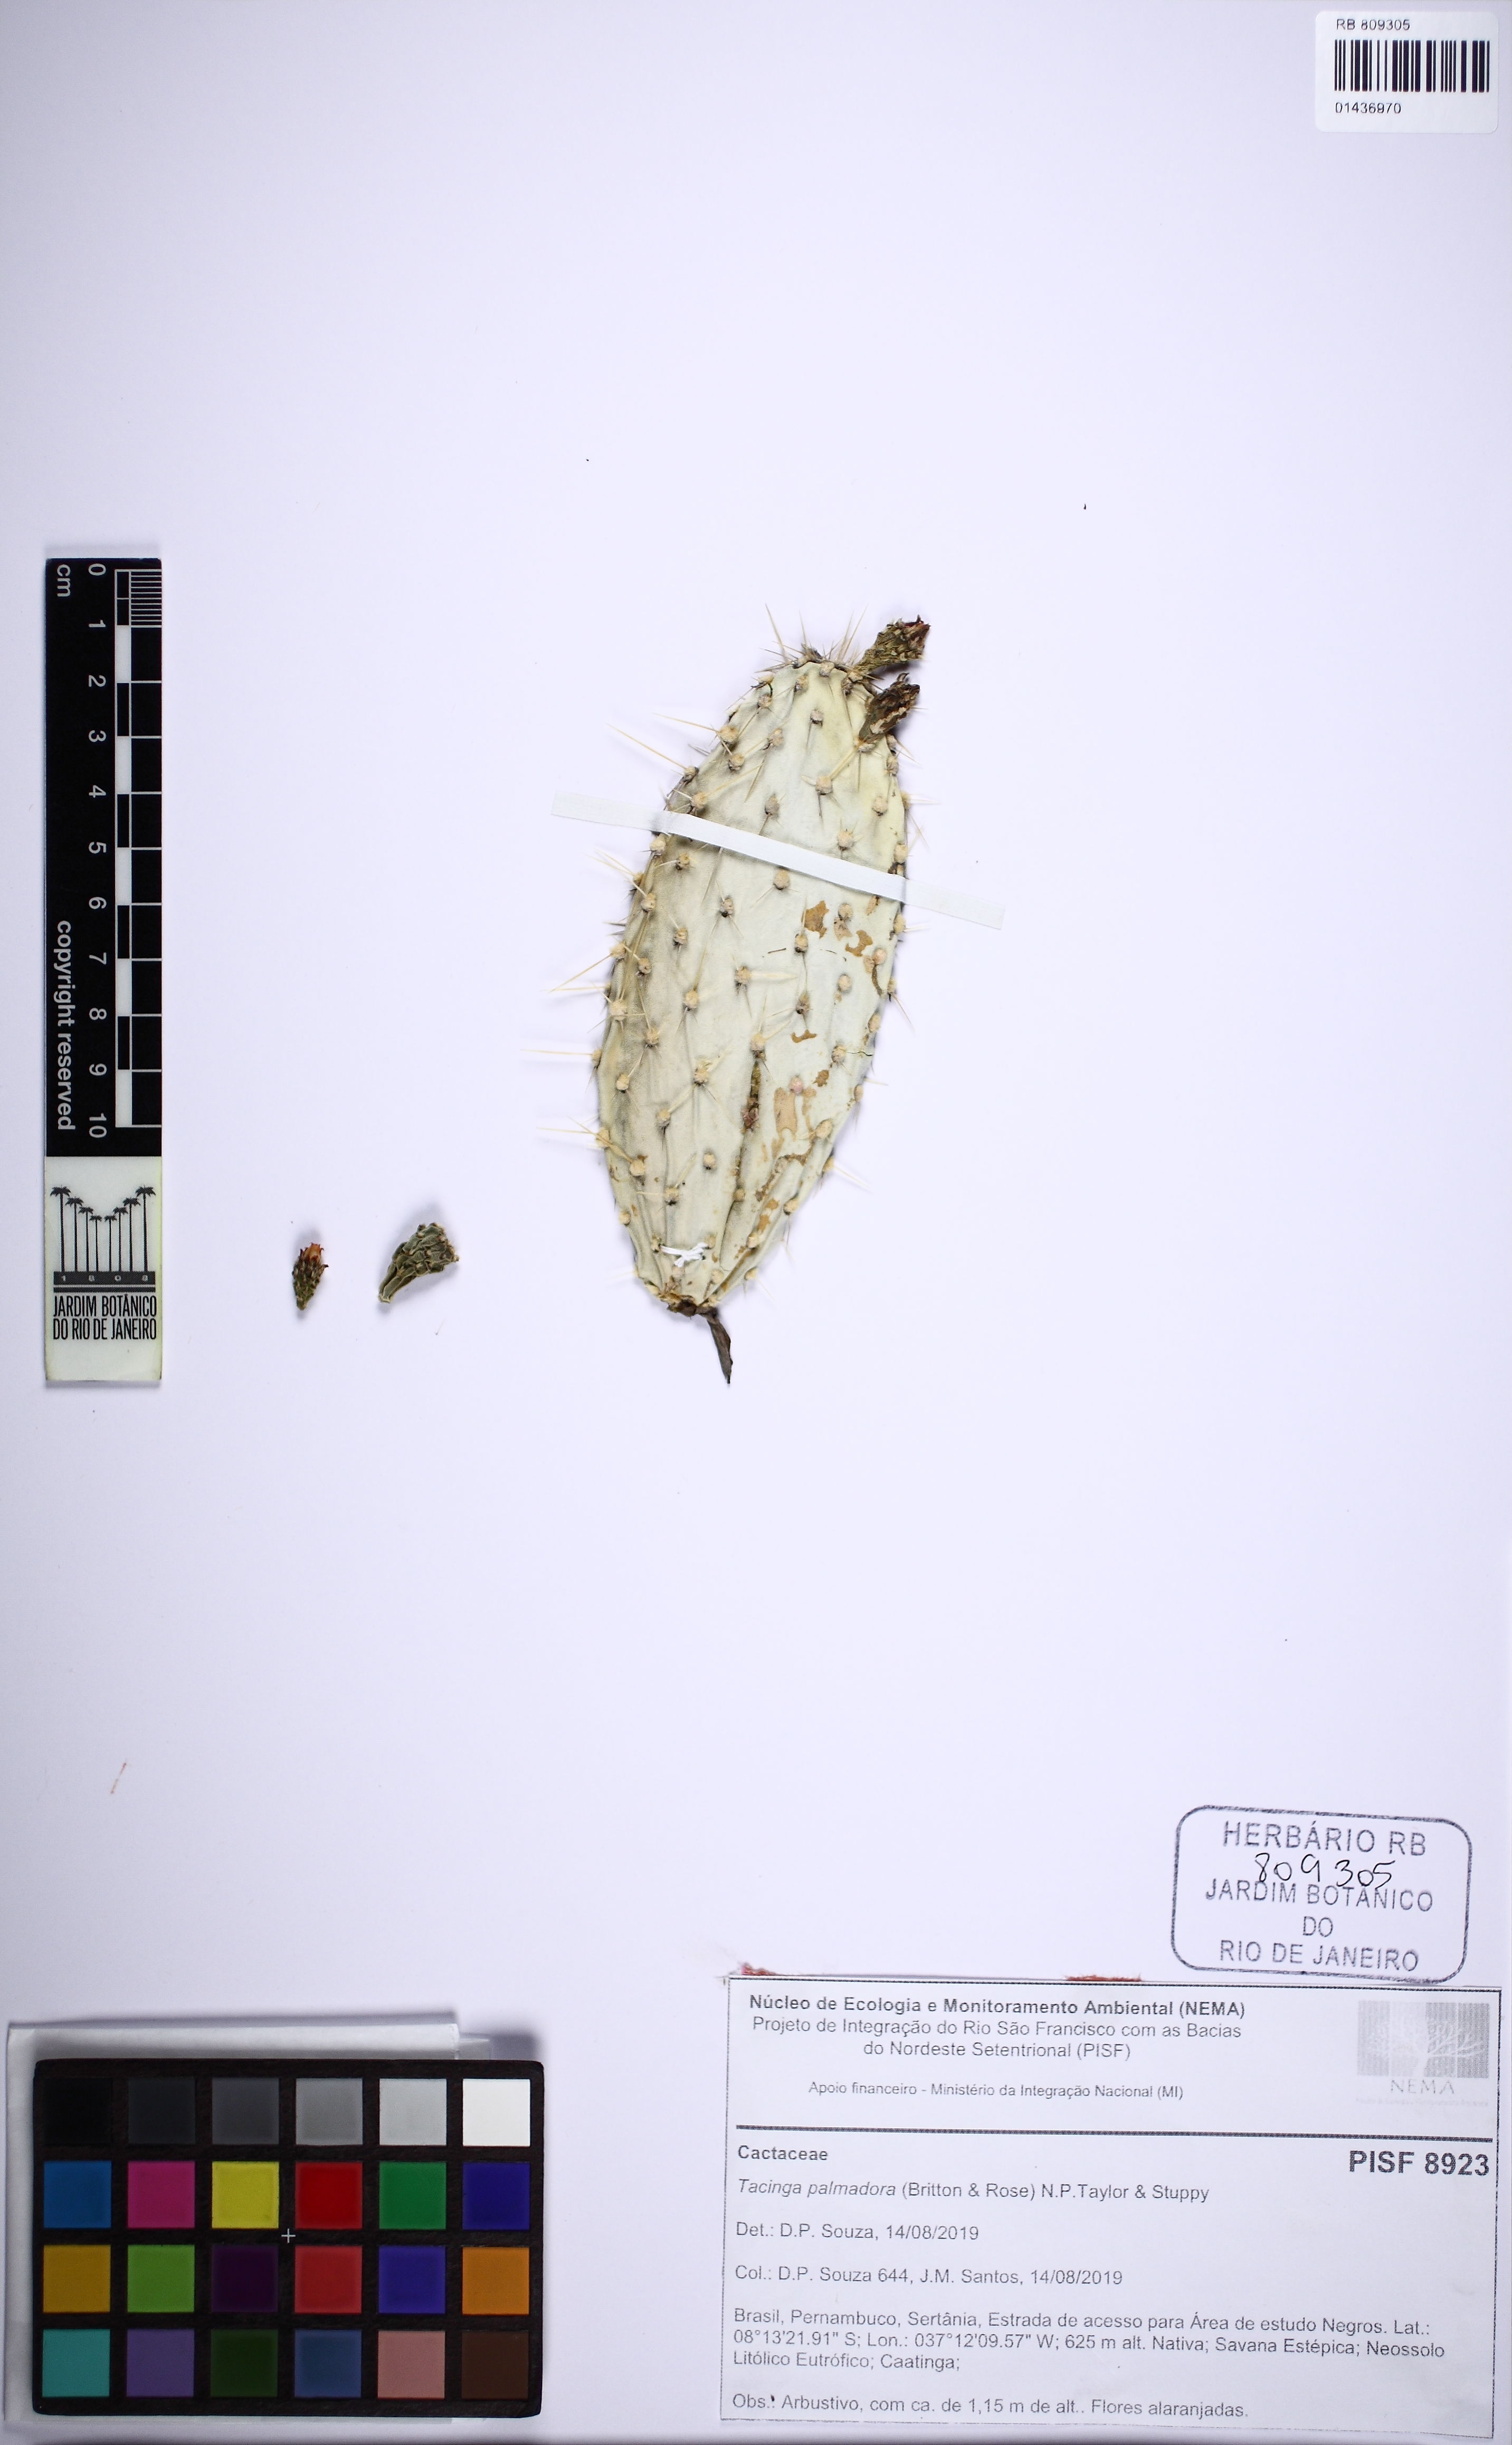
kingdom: Plantae
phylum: Tracheophyta
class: Magnoliopsida
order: Caryophyllales
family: Cactaceae
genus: Tacinga
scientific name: Tacinga palmadora
